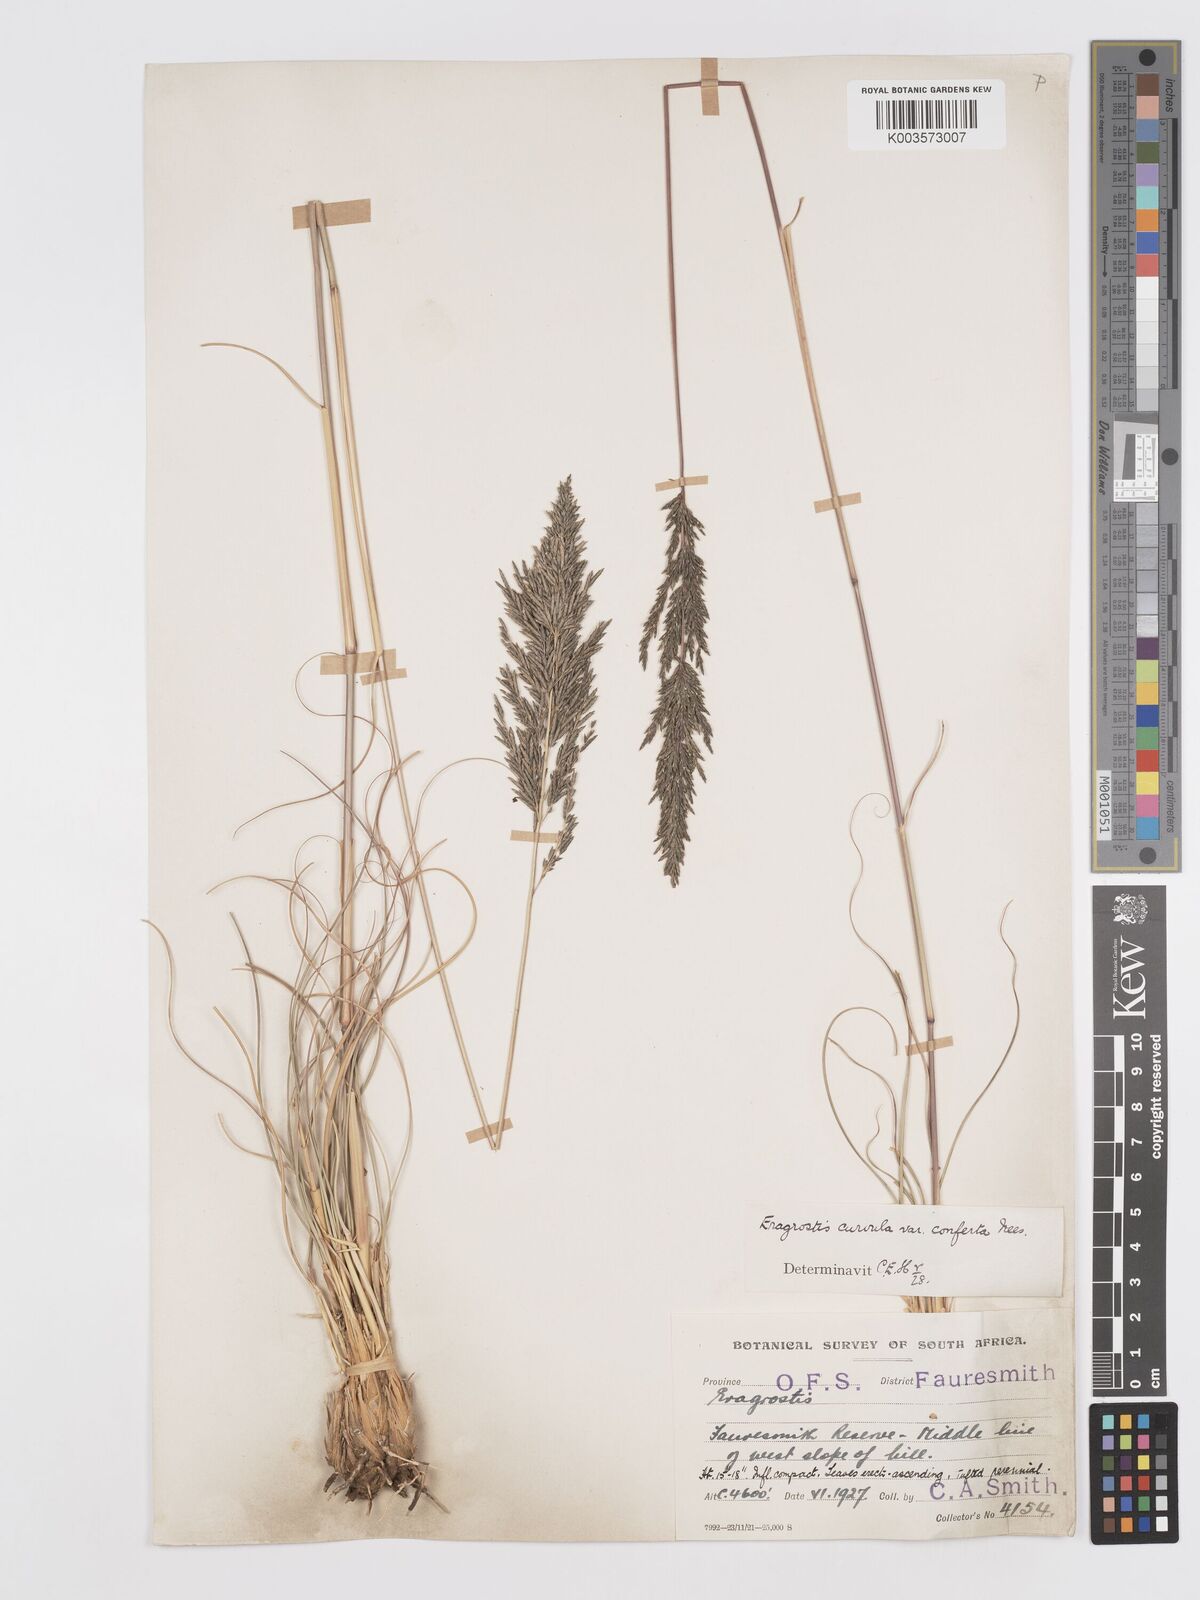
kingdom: Plantae
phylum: Tracheophyta
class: Liliopsida
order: Poales
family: Poaceae
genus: Eragrostis
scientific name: Eragrostis curvula
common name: African love-grass
